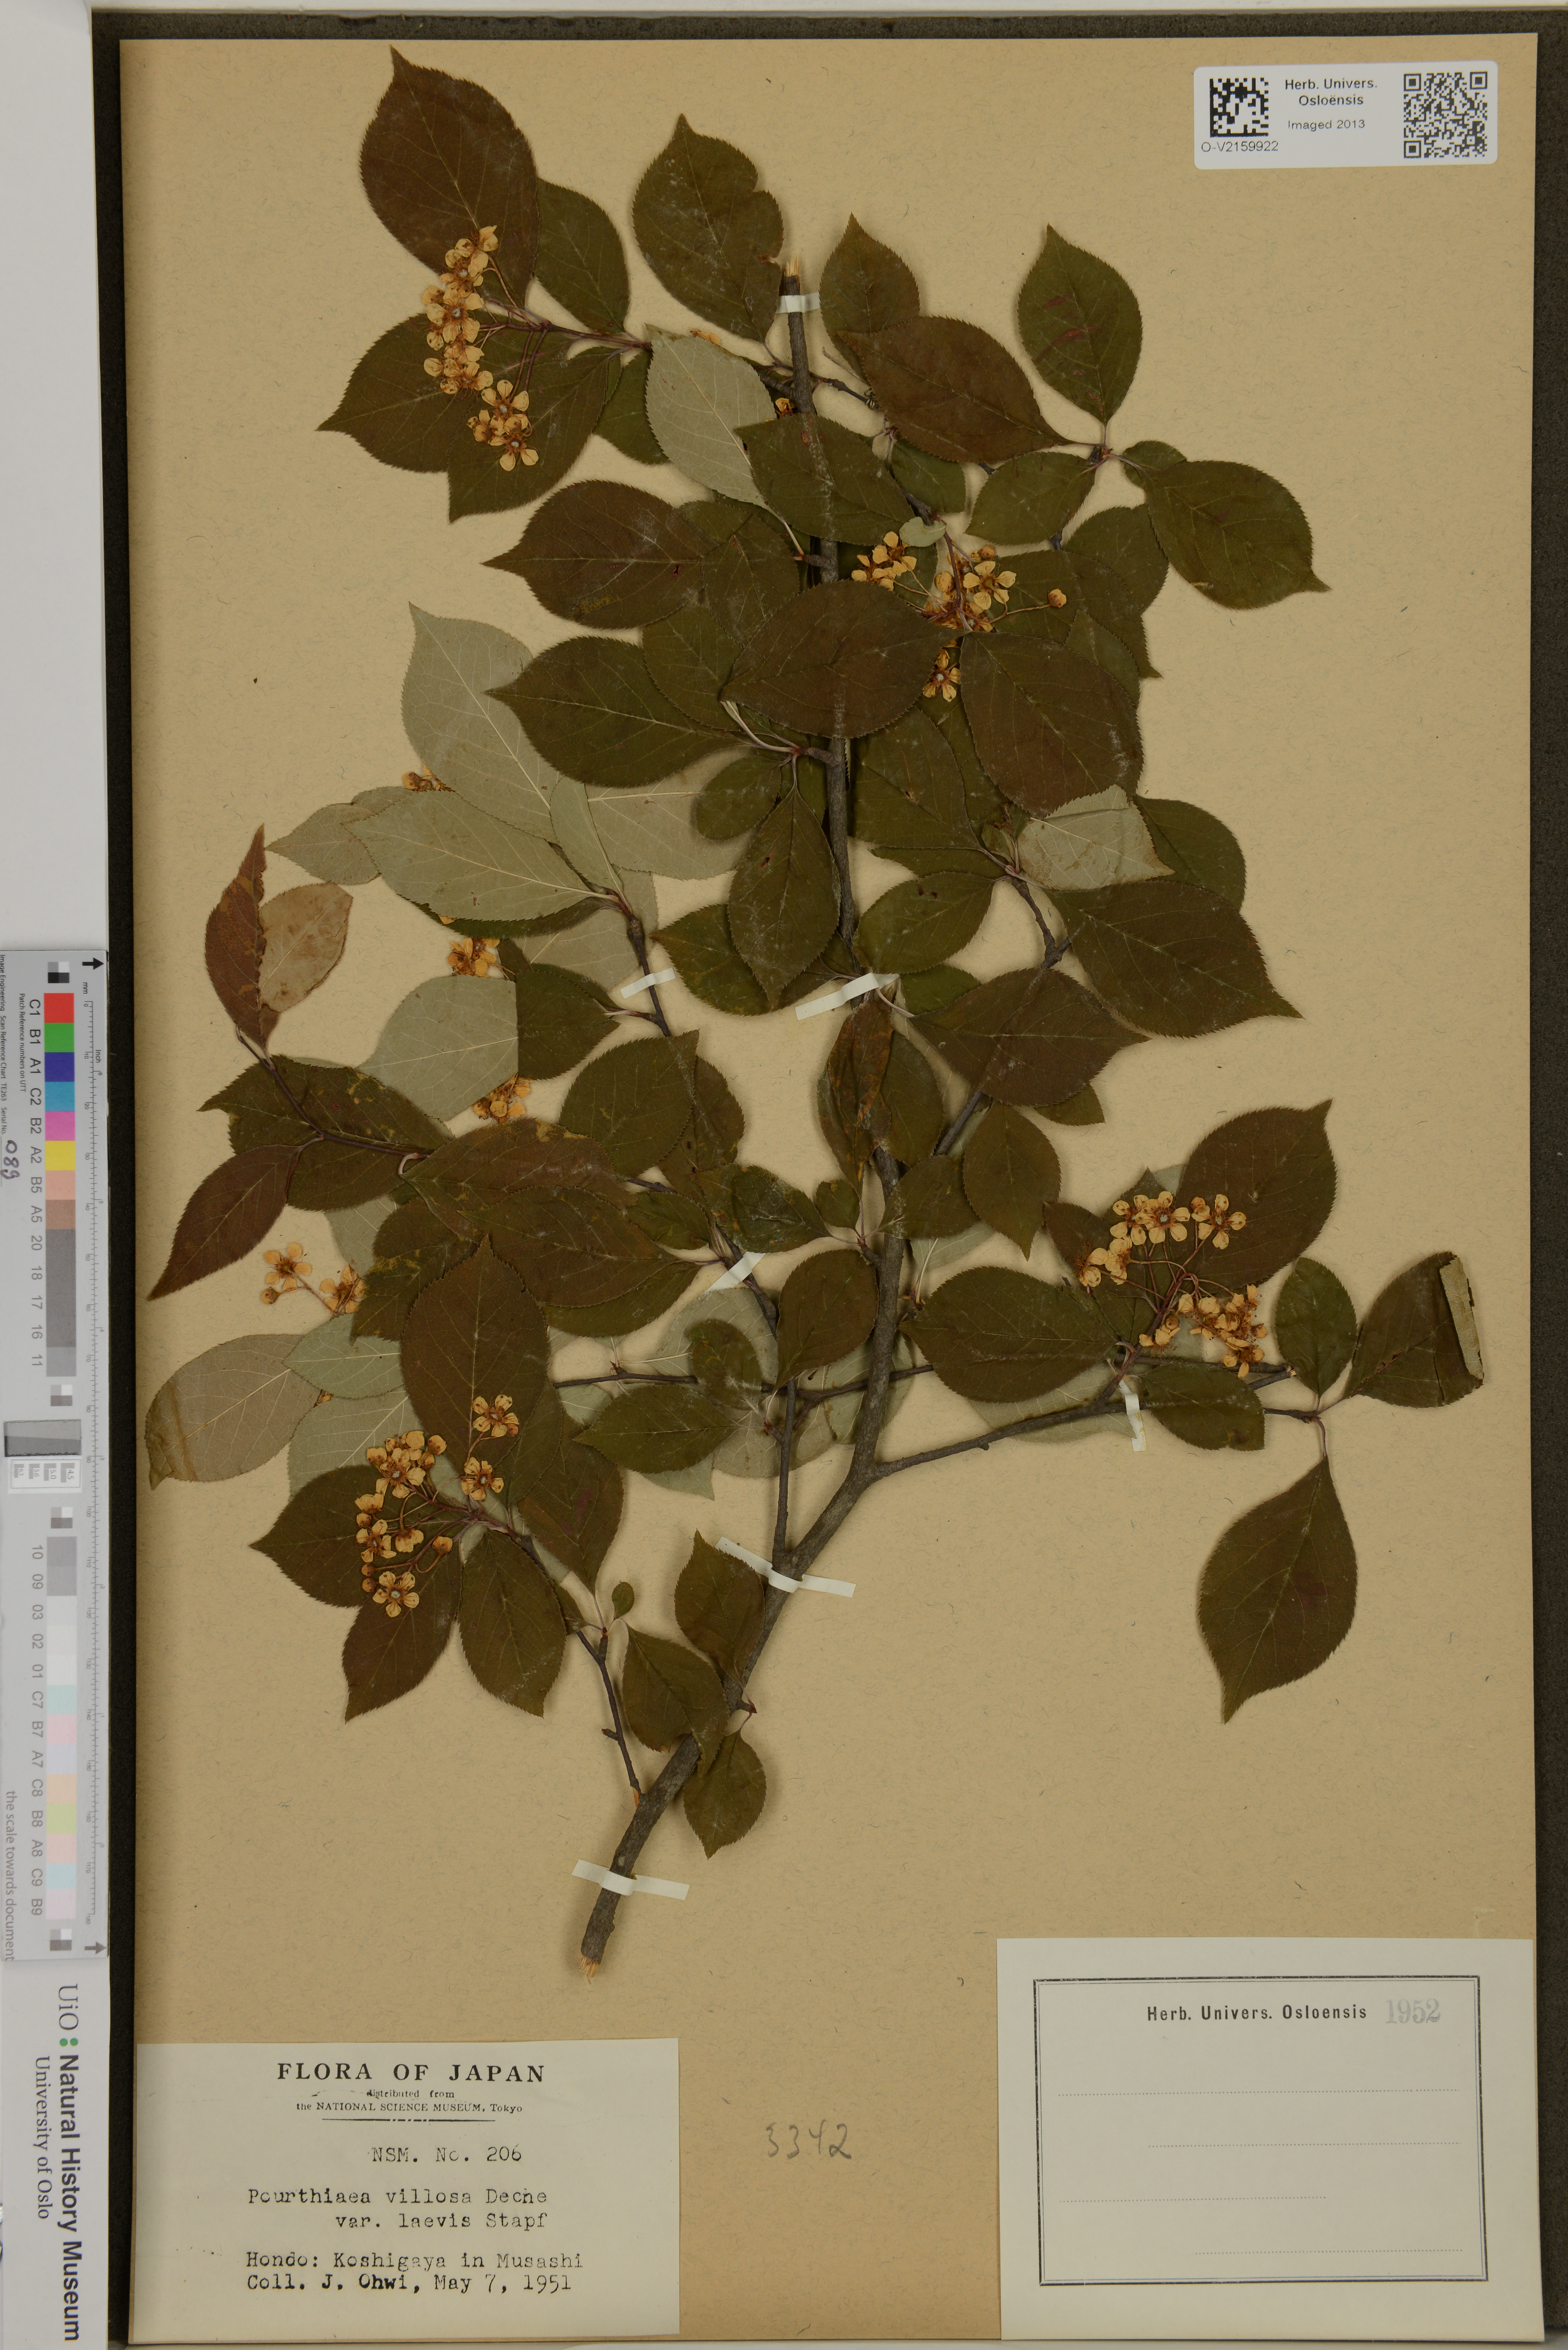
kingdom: Plantae
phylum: Tracheophyta
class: Magnoliopsida
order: Rosales
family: Rosaceae
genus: Pourthiaea
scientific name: Pourthiaea villosa
